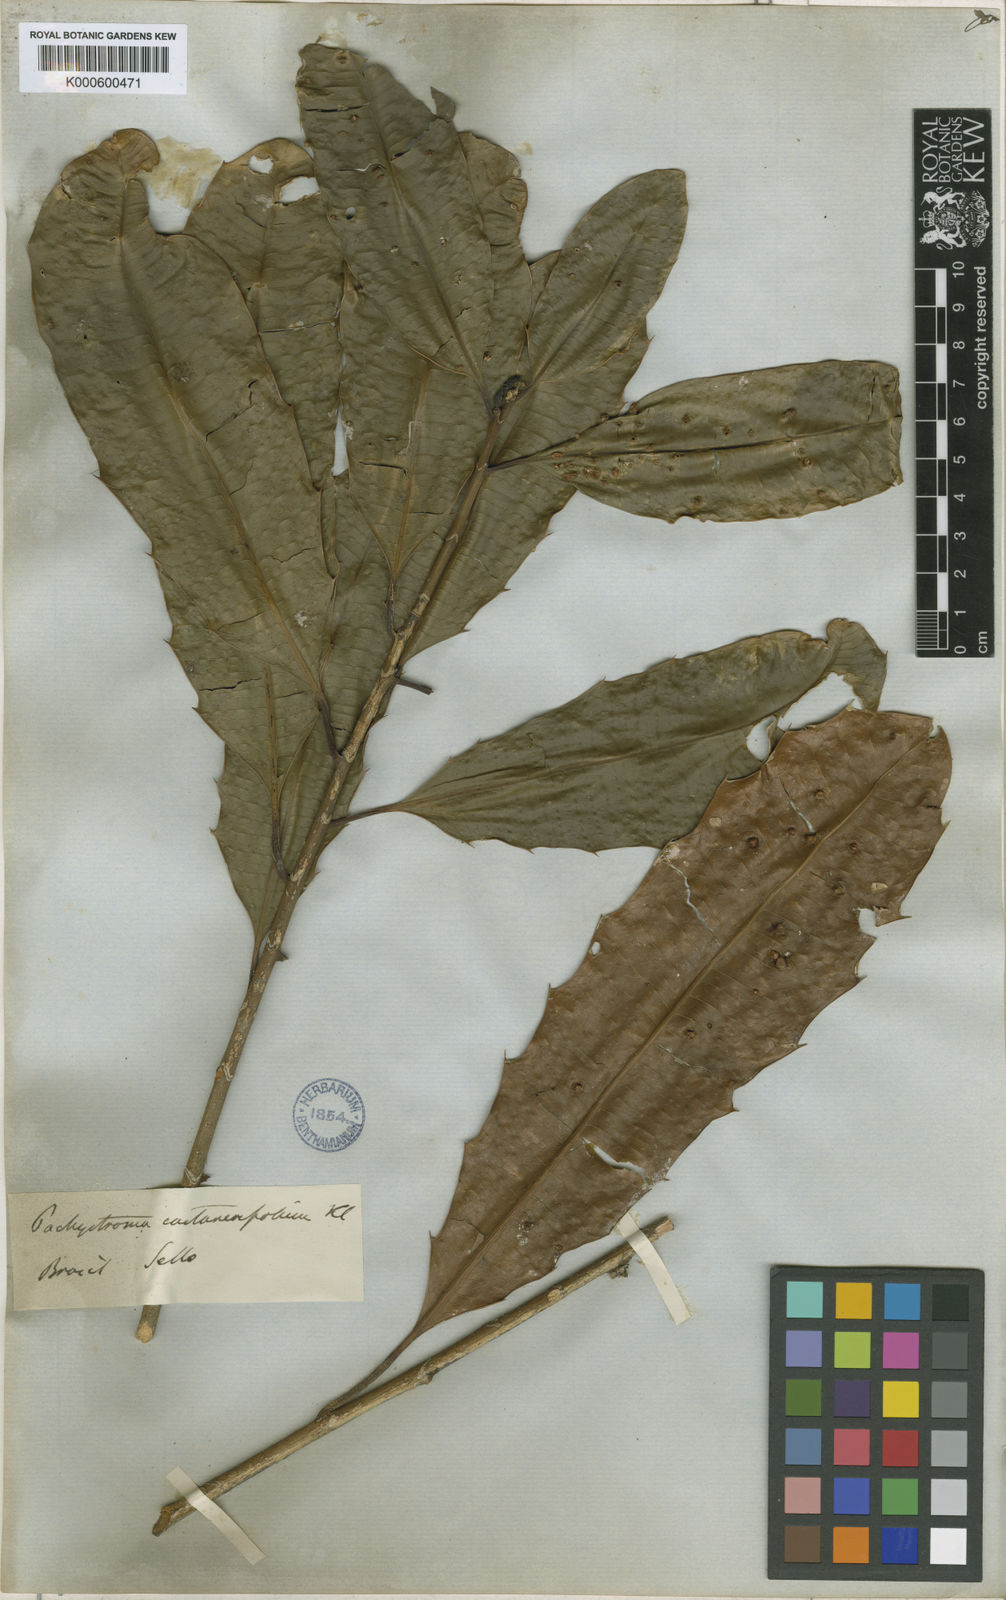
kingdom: Plantae
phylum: Tracheophyta
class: Magnoliopsida
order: Malpighiales
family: Euphorbiaceae
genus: Pachystroma
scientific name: Pachystroma longifolium
